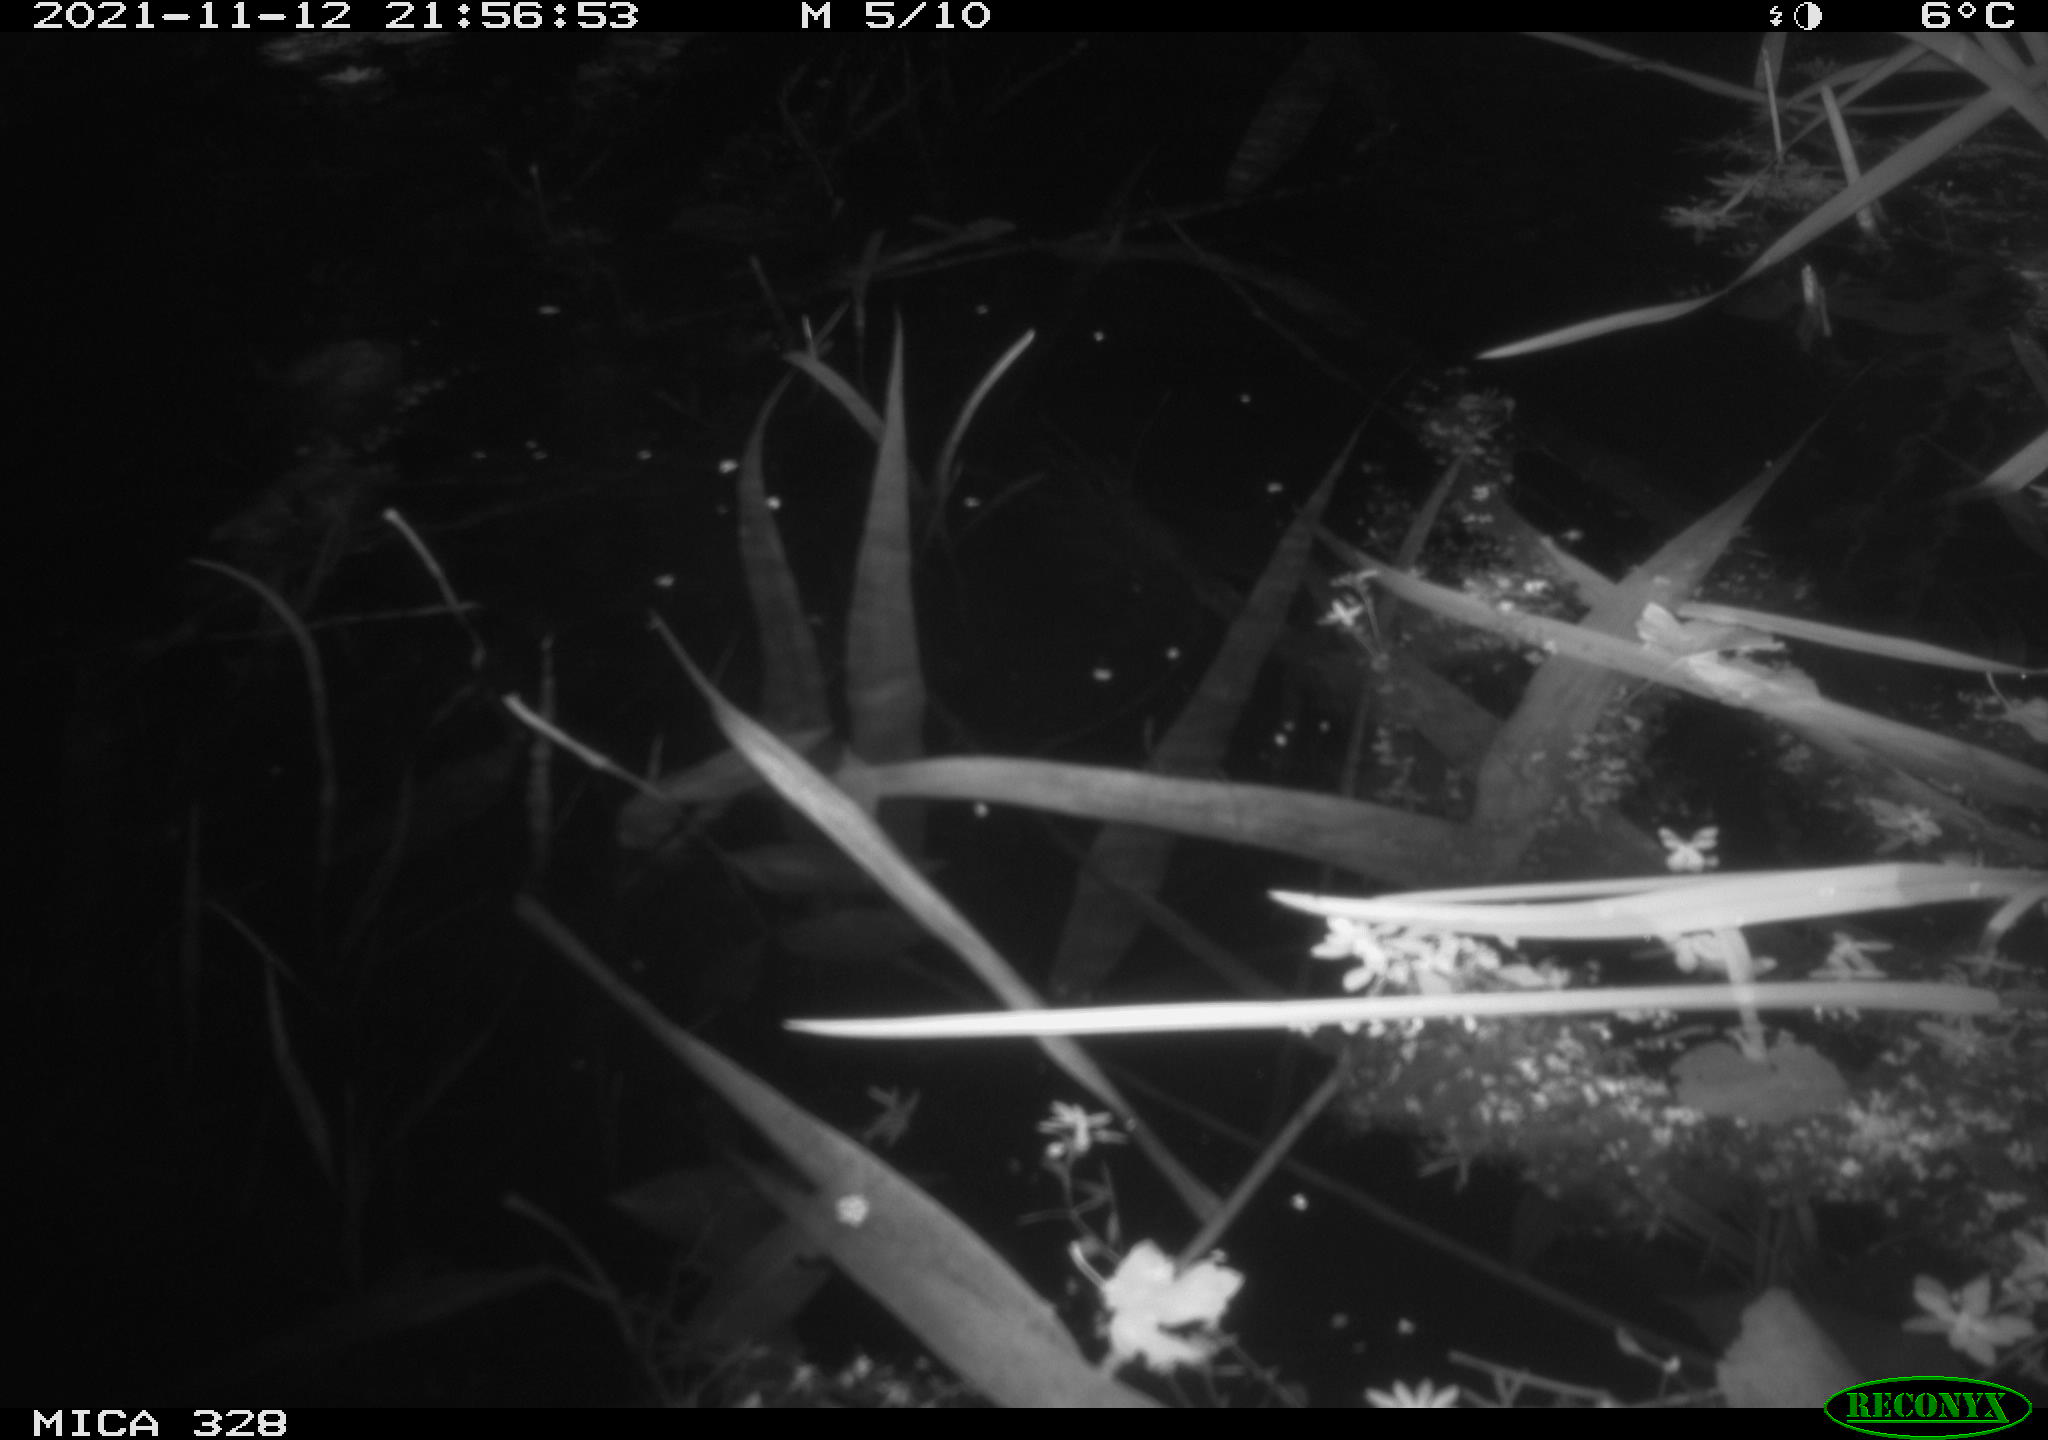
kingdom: Animalia
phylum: Chordata
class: Mammalia
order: Rodentia
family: Cricetidae
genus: Ondatra
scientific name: Ondatra zibethicus
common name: Muskrat
